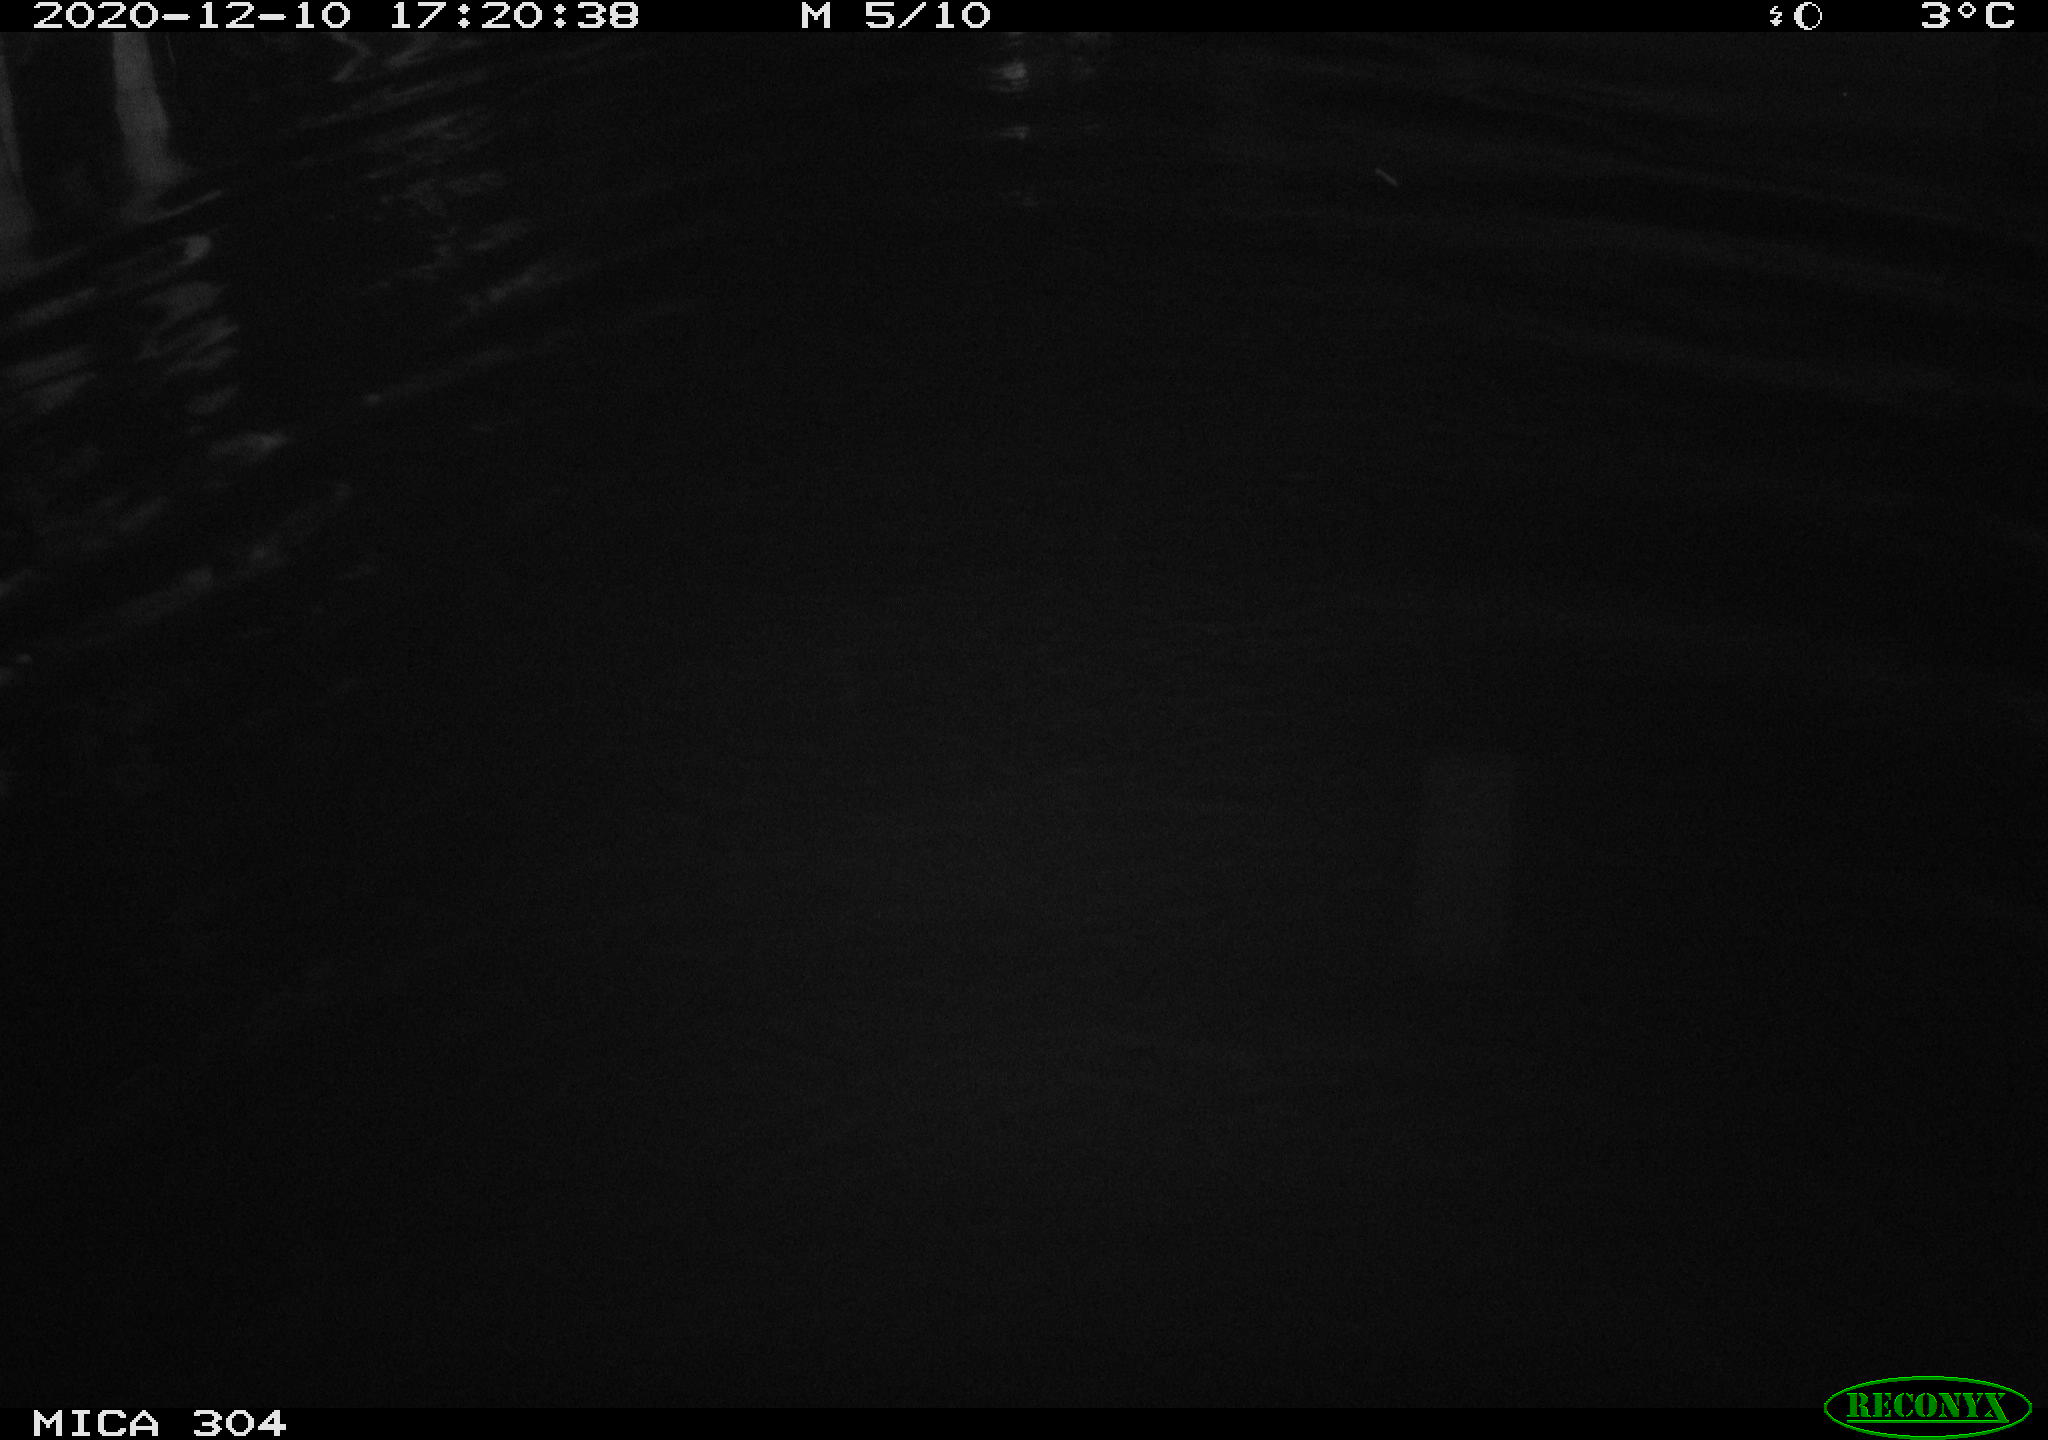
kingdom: Animalia
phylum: Chordata
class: Aves
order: Anseriformes
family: Anatidae
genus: Anas
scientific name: Anas platyrhynchos
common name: Mallard
